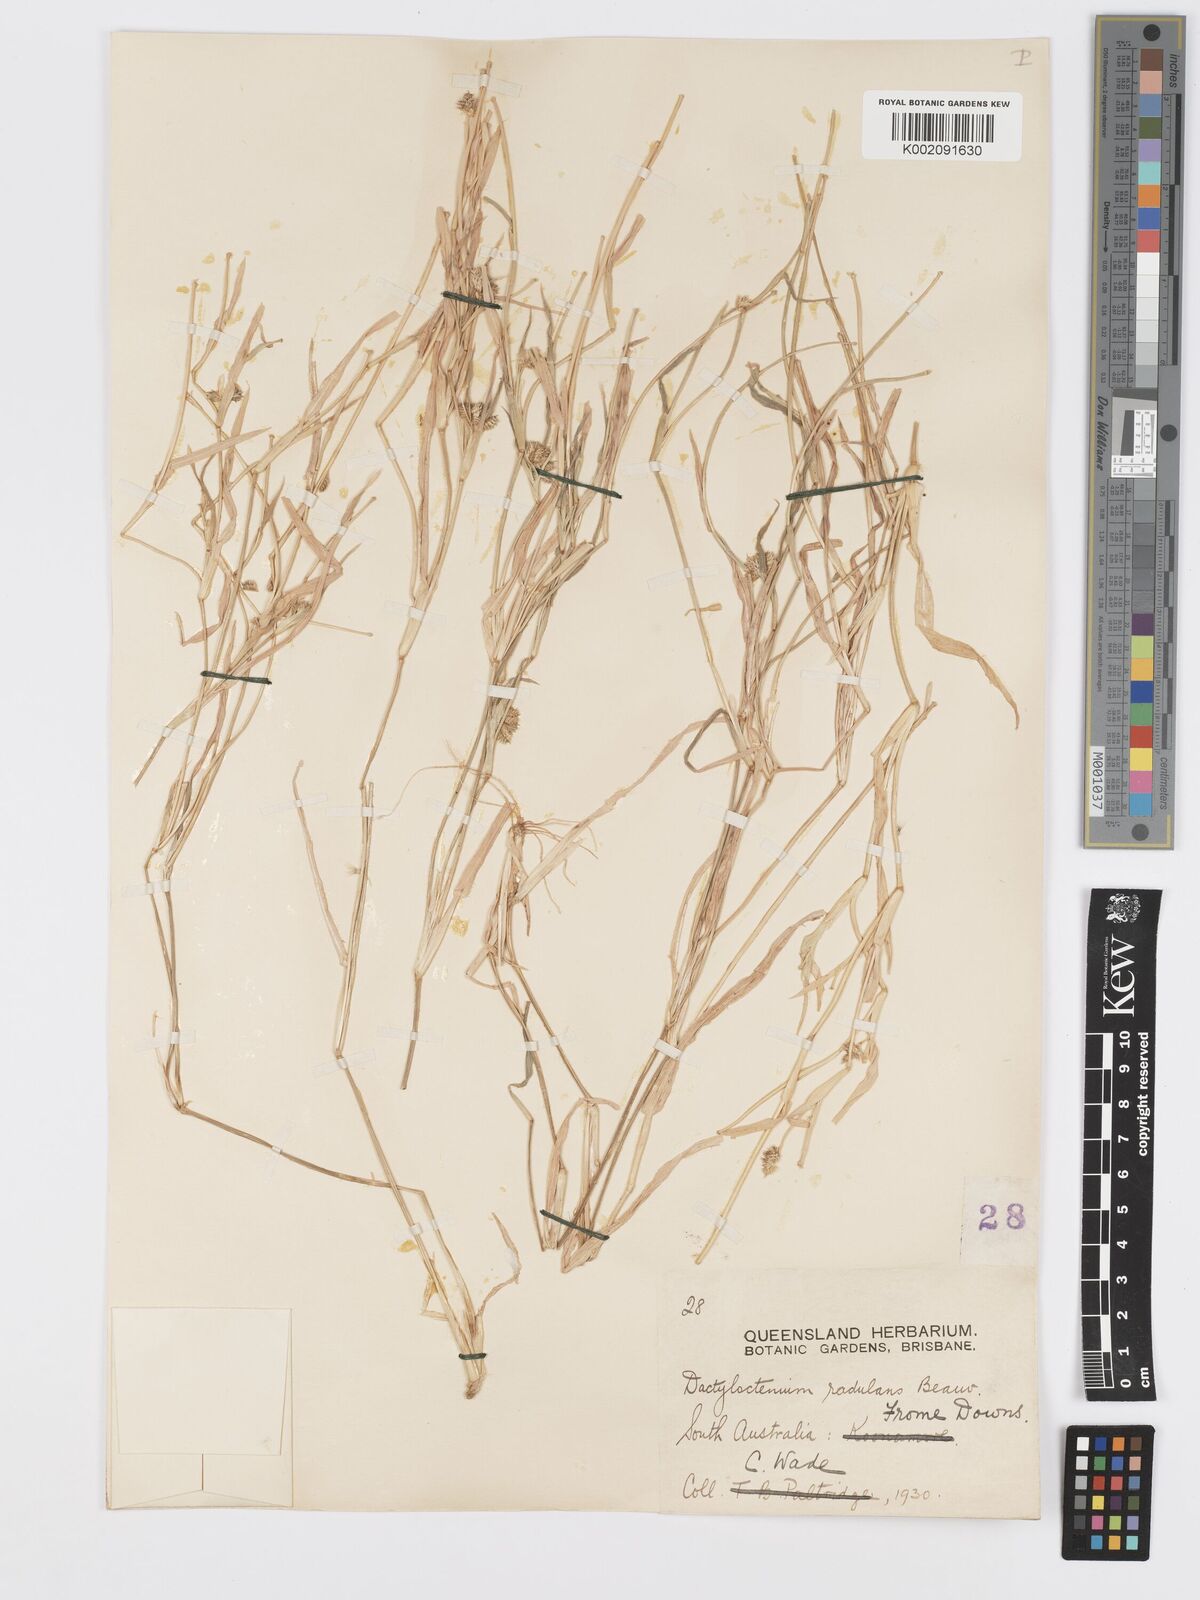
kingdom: Plantae
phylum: Tracheophyta
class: Liliopsida
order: Poales
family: Poaceae
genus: Dactyloctenium
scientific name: Dactyloctenium radulans
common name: Button-grass
